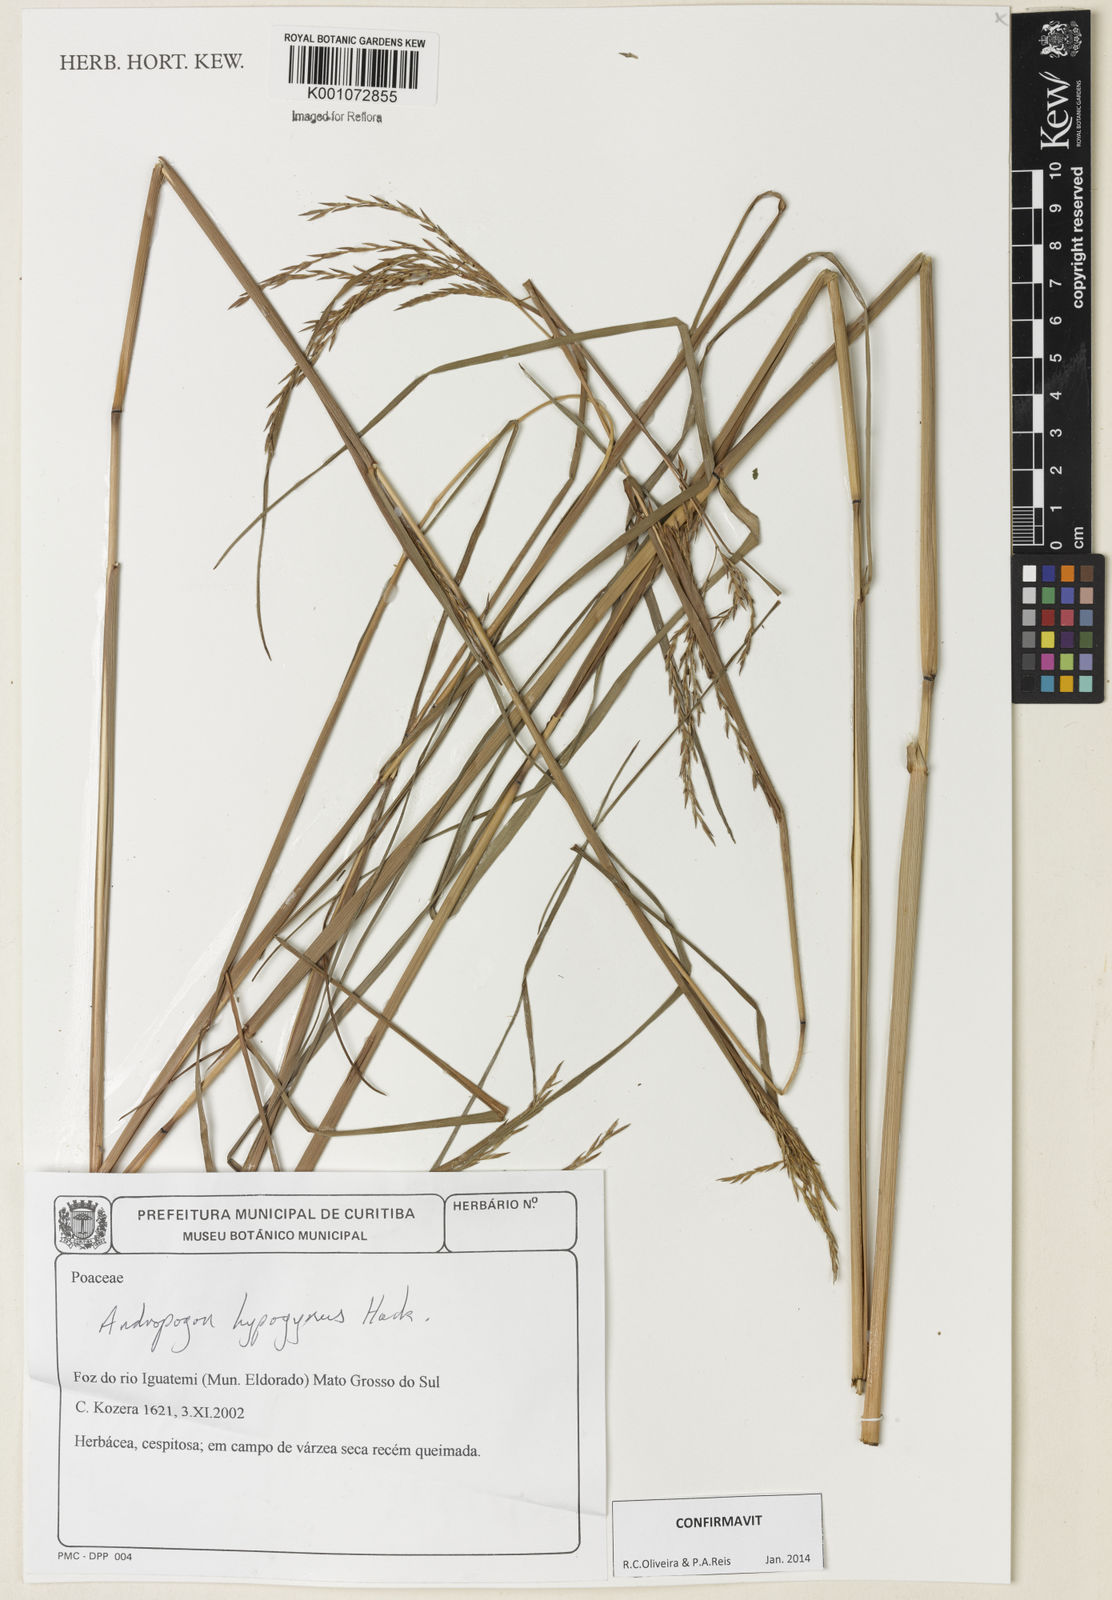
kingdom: Plantae
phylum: Tracheophyta
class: Liliopsida
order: Poales
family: Poaceae
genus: Andropogon
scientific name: Andropogon hypogynus
